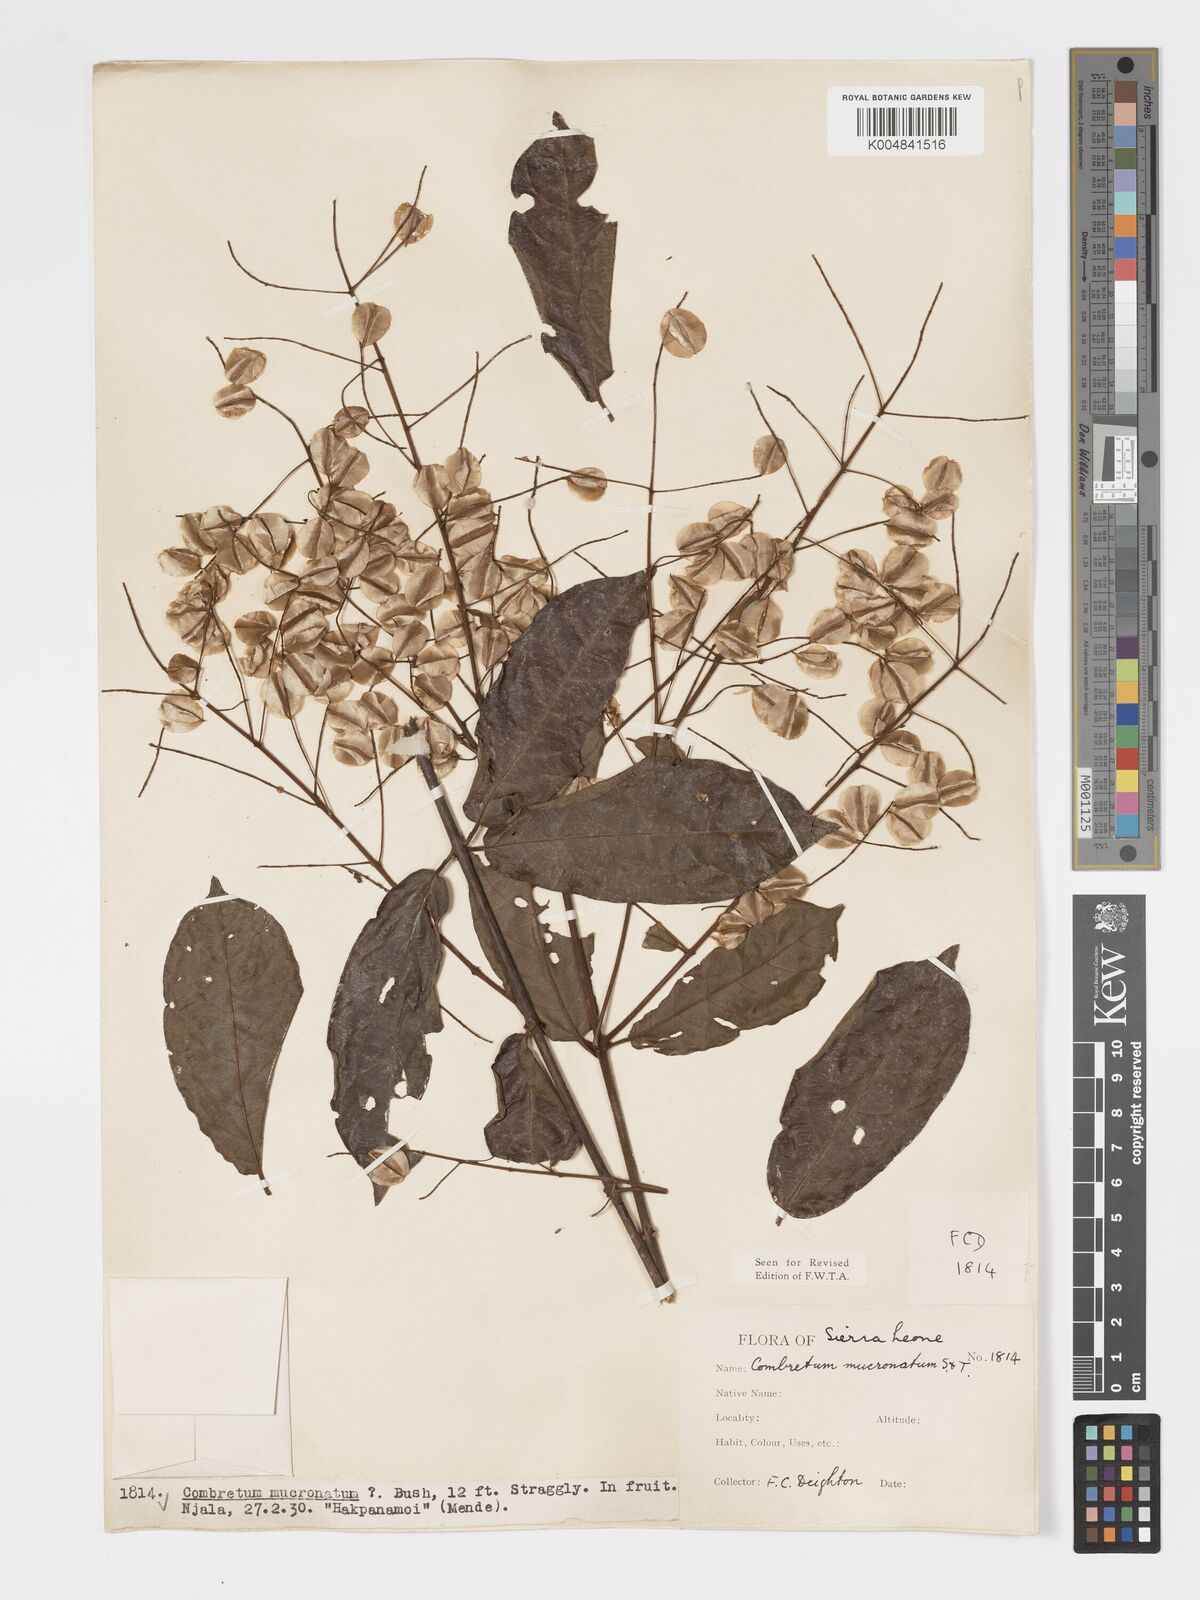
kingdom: Plantae
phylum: Tracheophyta
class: Magnoliopsida
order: Myrtales
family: Combretaceae
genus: Combretum
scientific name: Combretum mucronatum
